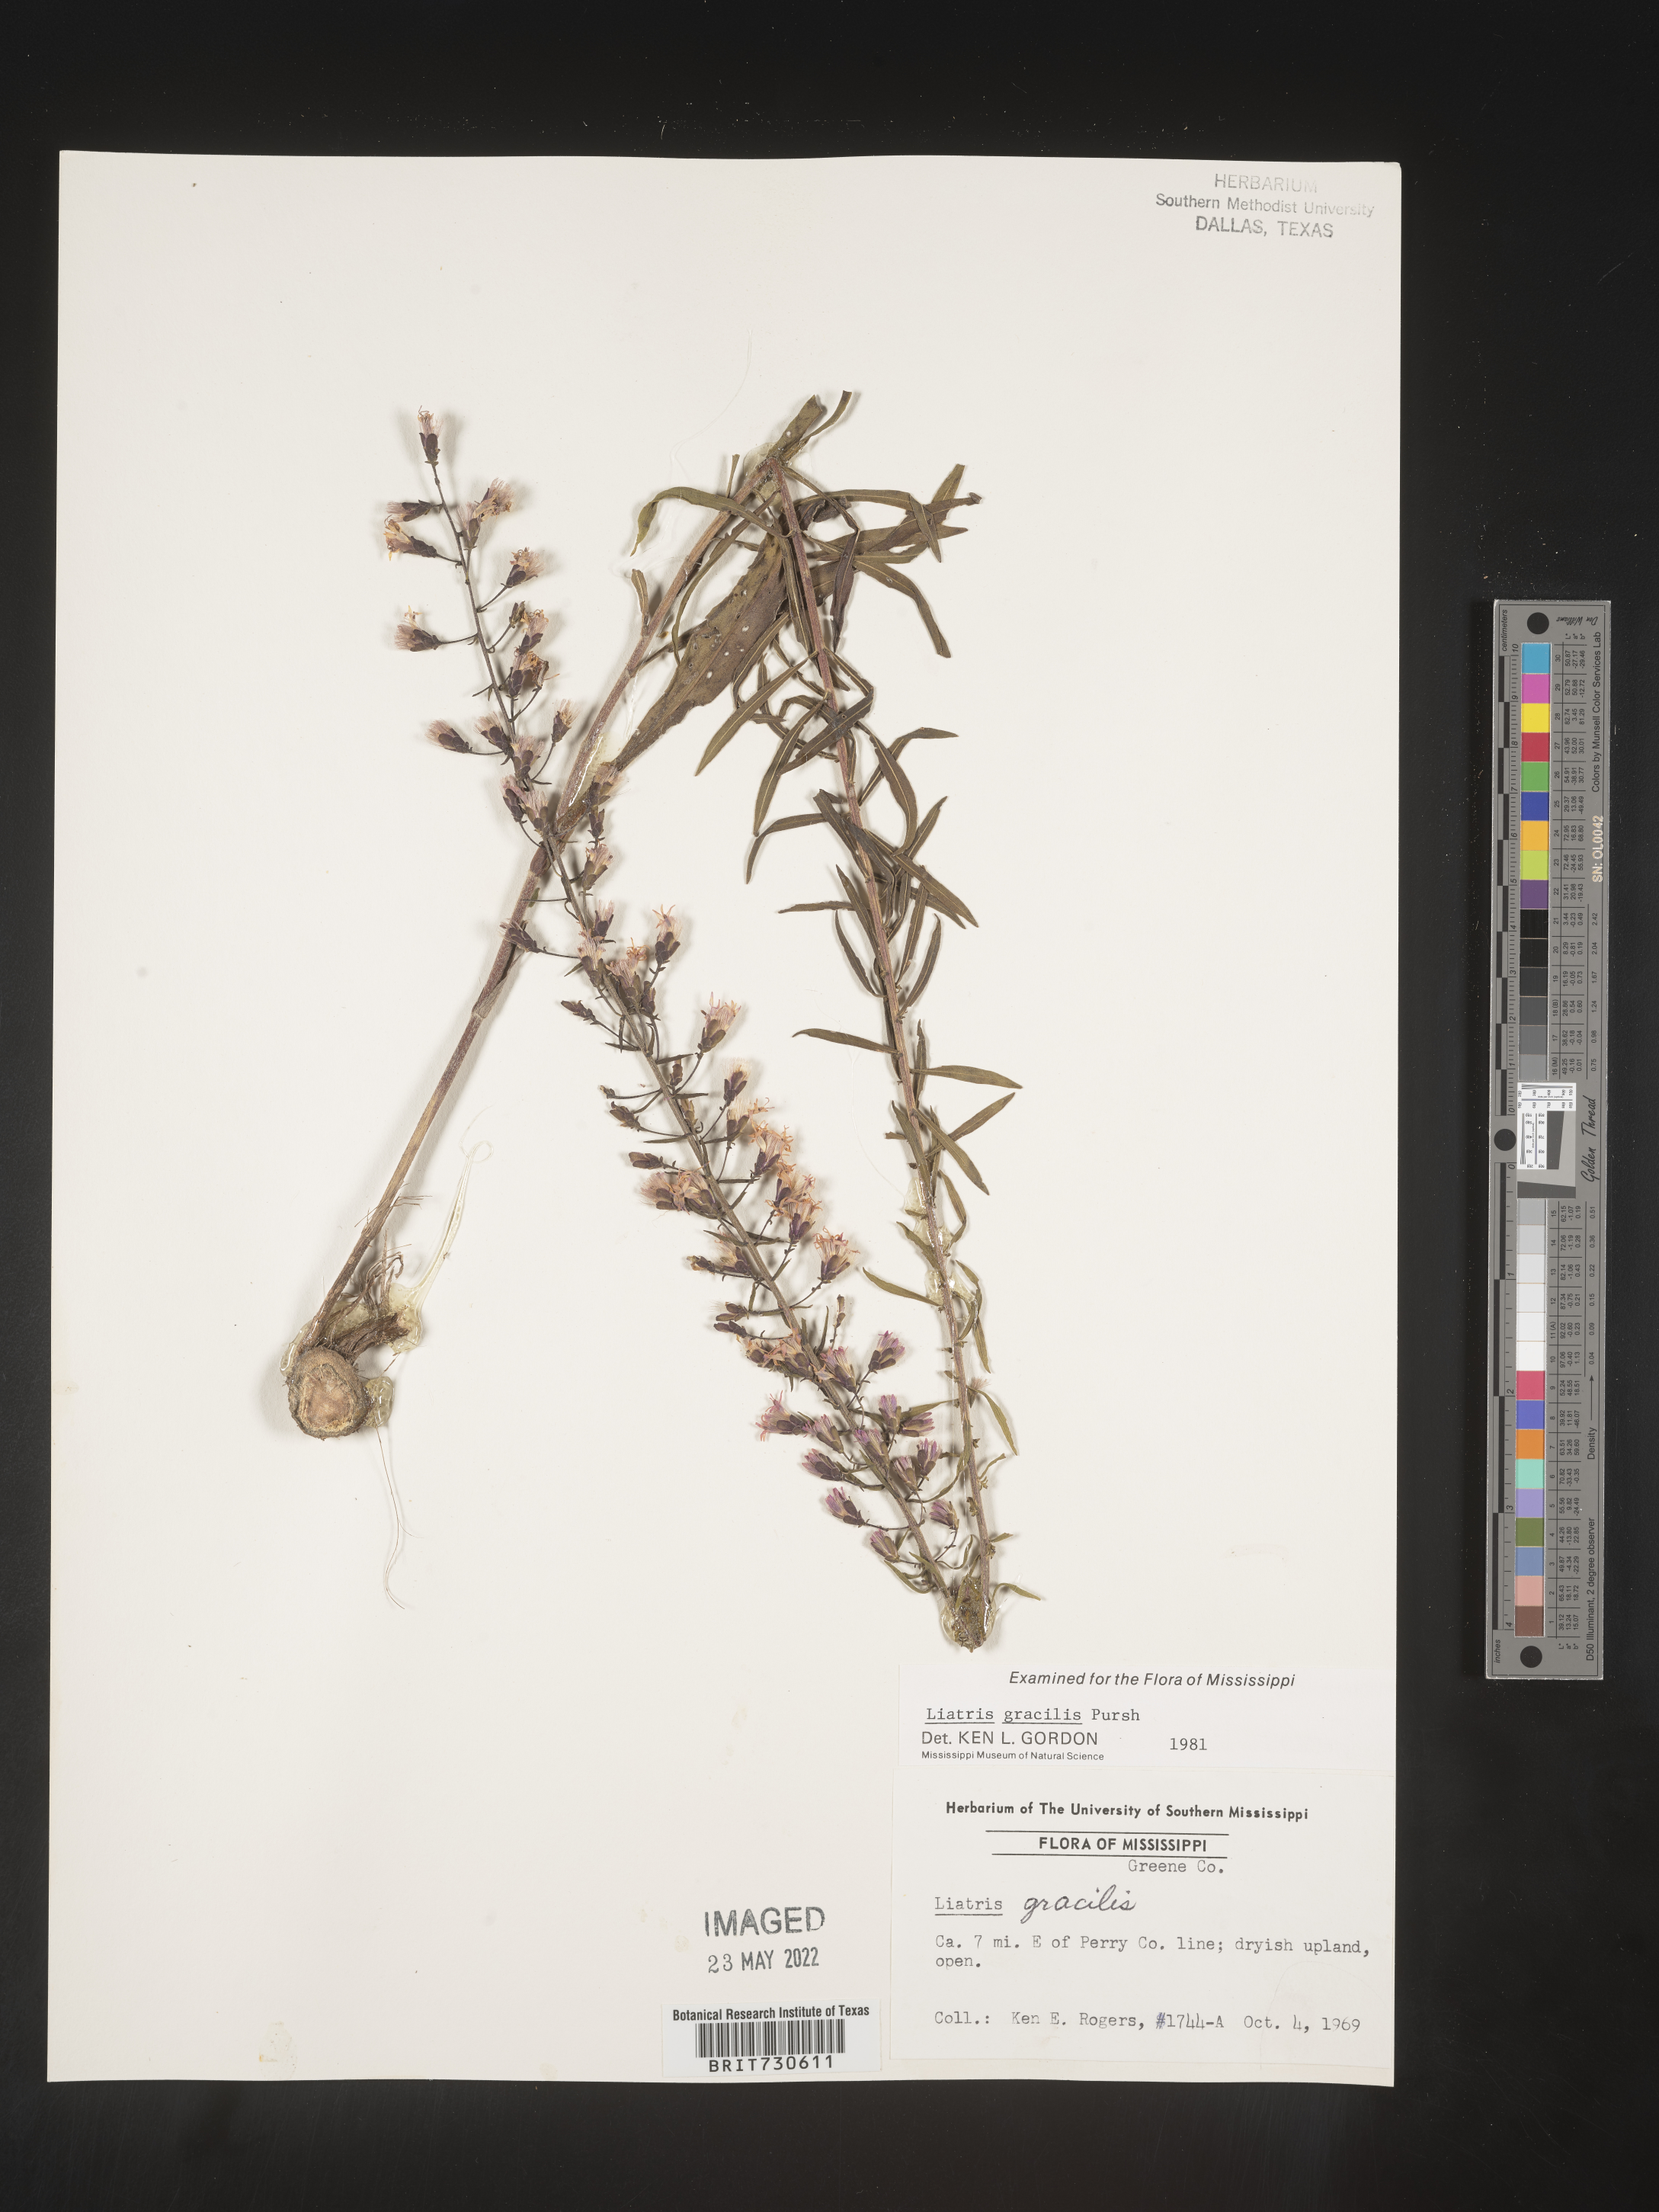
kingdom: Plantae
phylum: Tracheophyta
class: Magnoliopsida
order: Asterales
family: Asteraceae
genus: Liatris
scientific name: Liatris gracilis
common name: Slender gayfeather
